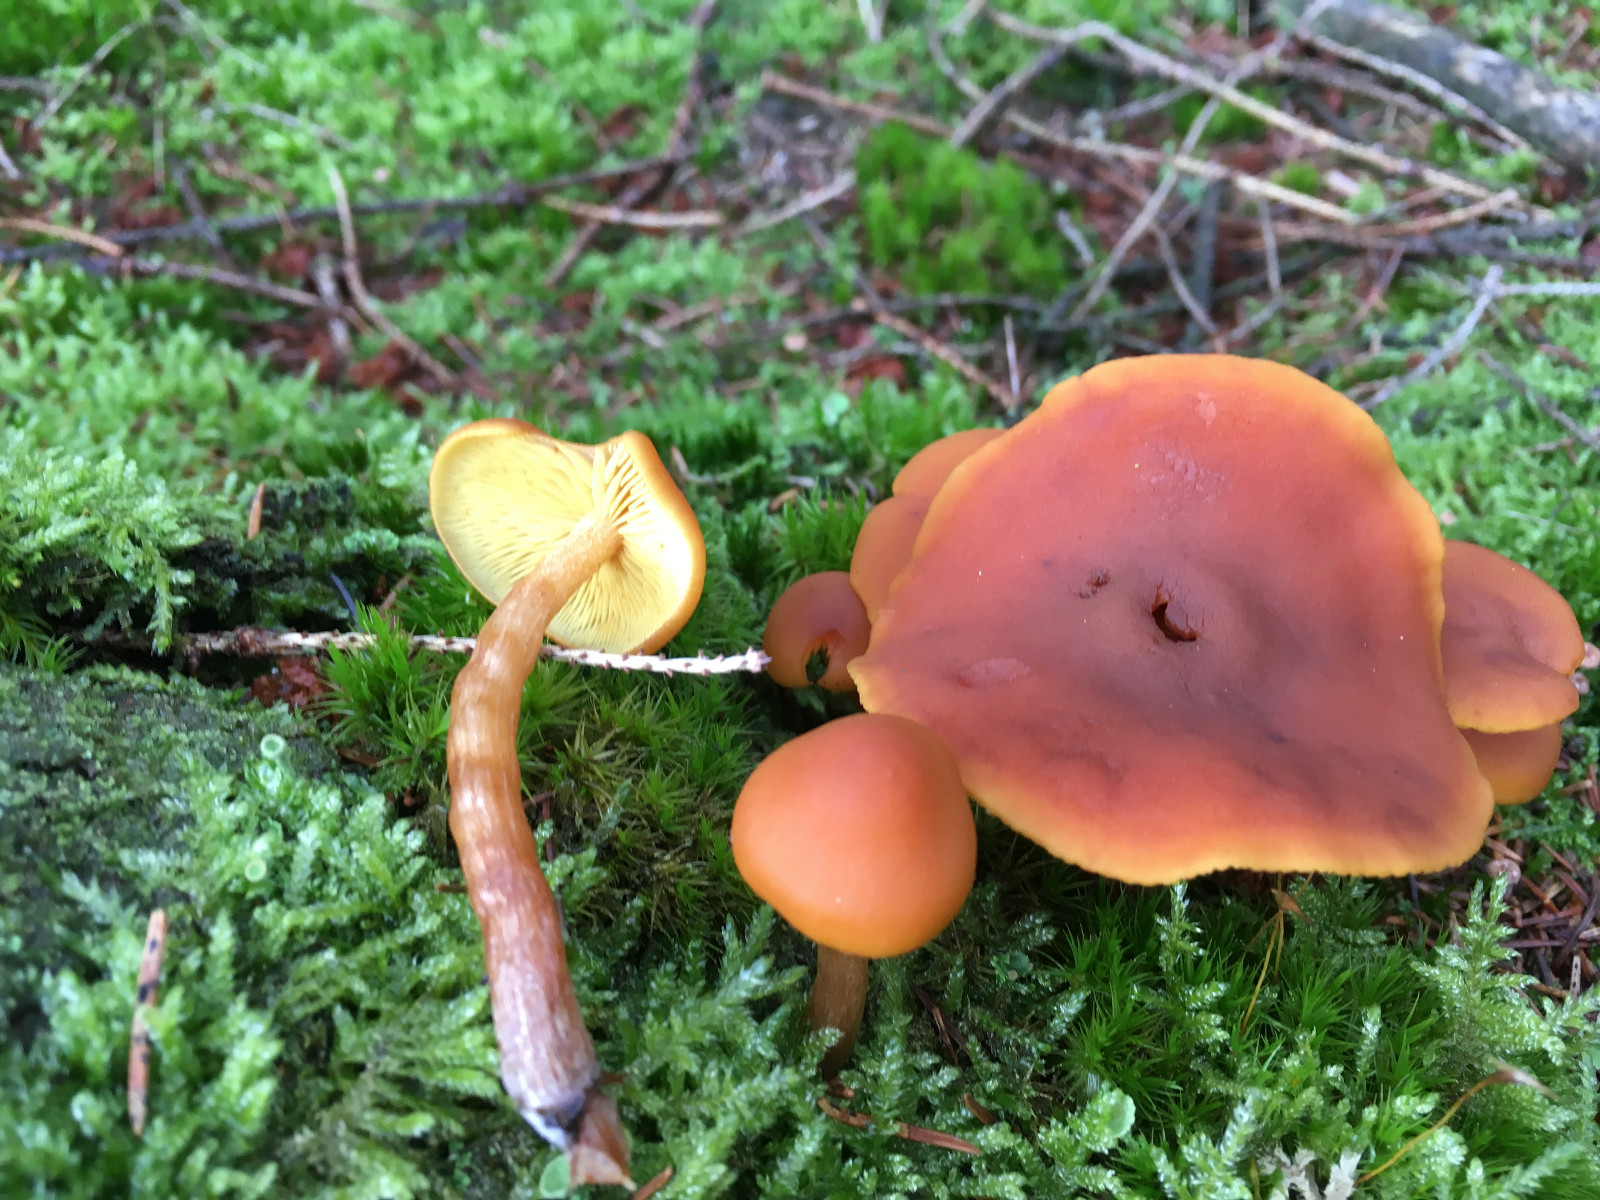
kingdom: Fungi
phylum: Basidiomycota
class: Agaricomycetes
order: Agaricales
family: Hymenogastraceae
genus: Gymnopilus
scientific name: Gymnopilus picreus
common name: puklet flammehat
